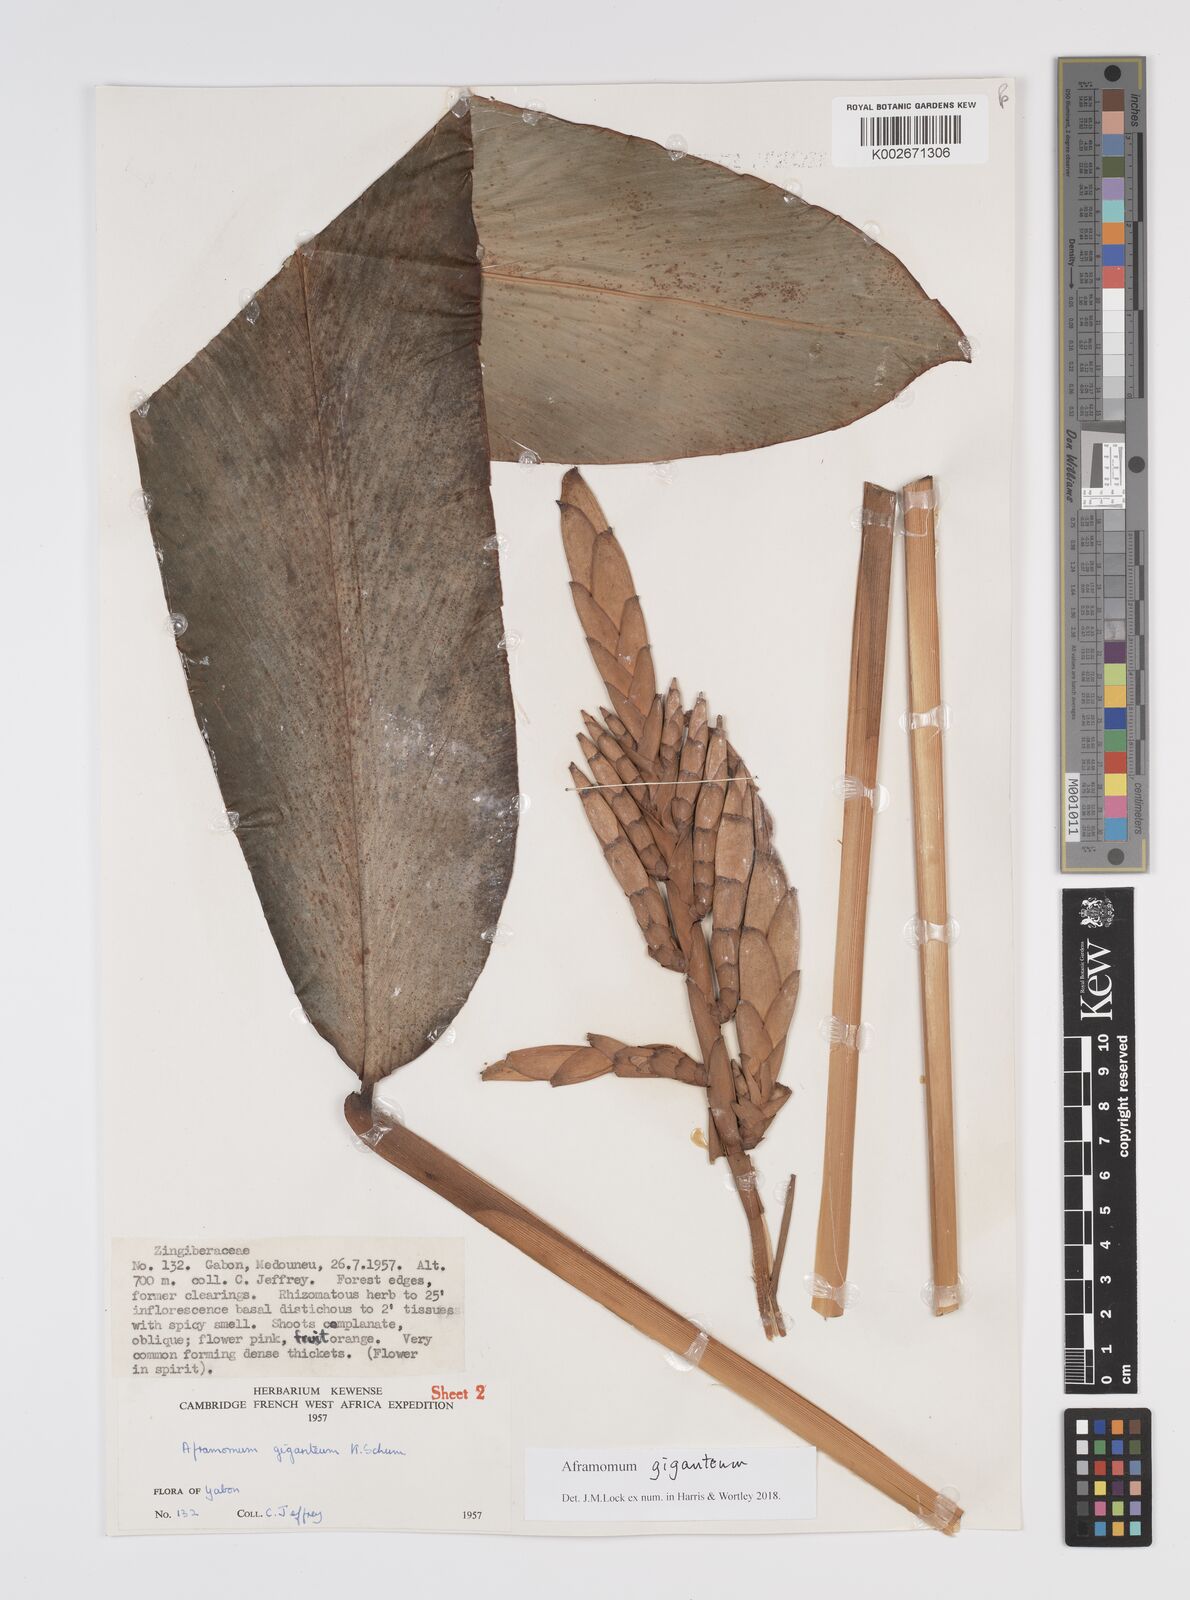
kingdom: Plantae
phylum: Tracheophyta
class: Liliopsida
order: Zingiberales
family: Zingiberaceae
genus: Aframomum
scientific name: Aframomum giganteum
